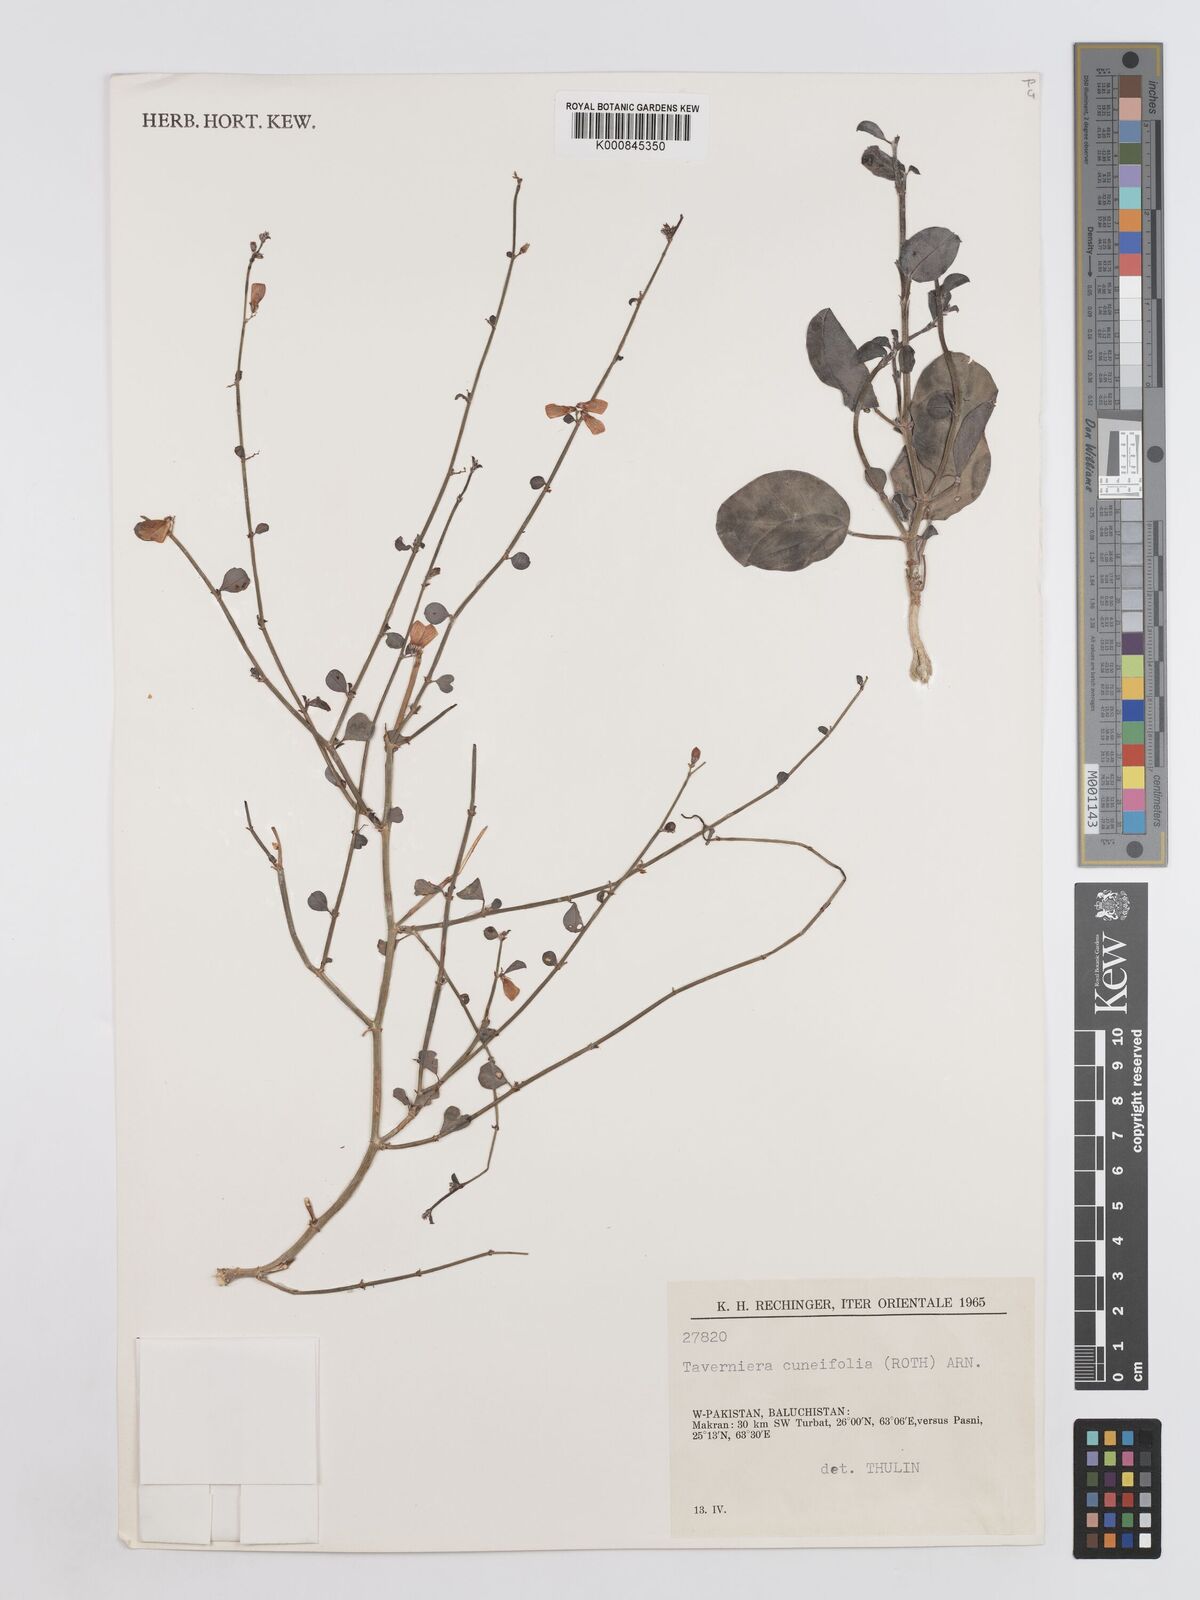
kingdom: Plantae
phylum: Tracheophyta
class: Magnoliopsida
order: Fabales
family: Fabaceae
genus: Taverniera
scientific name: Taverniera cuneifolia
